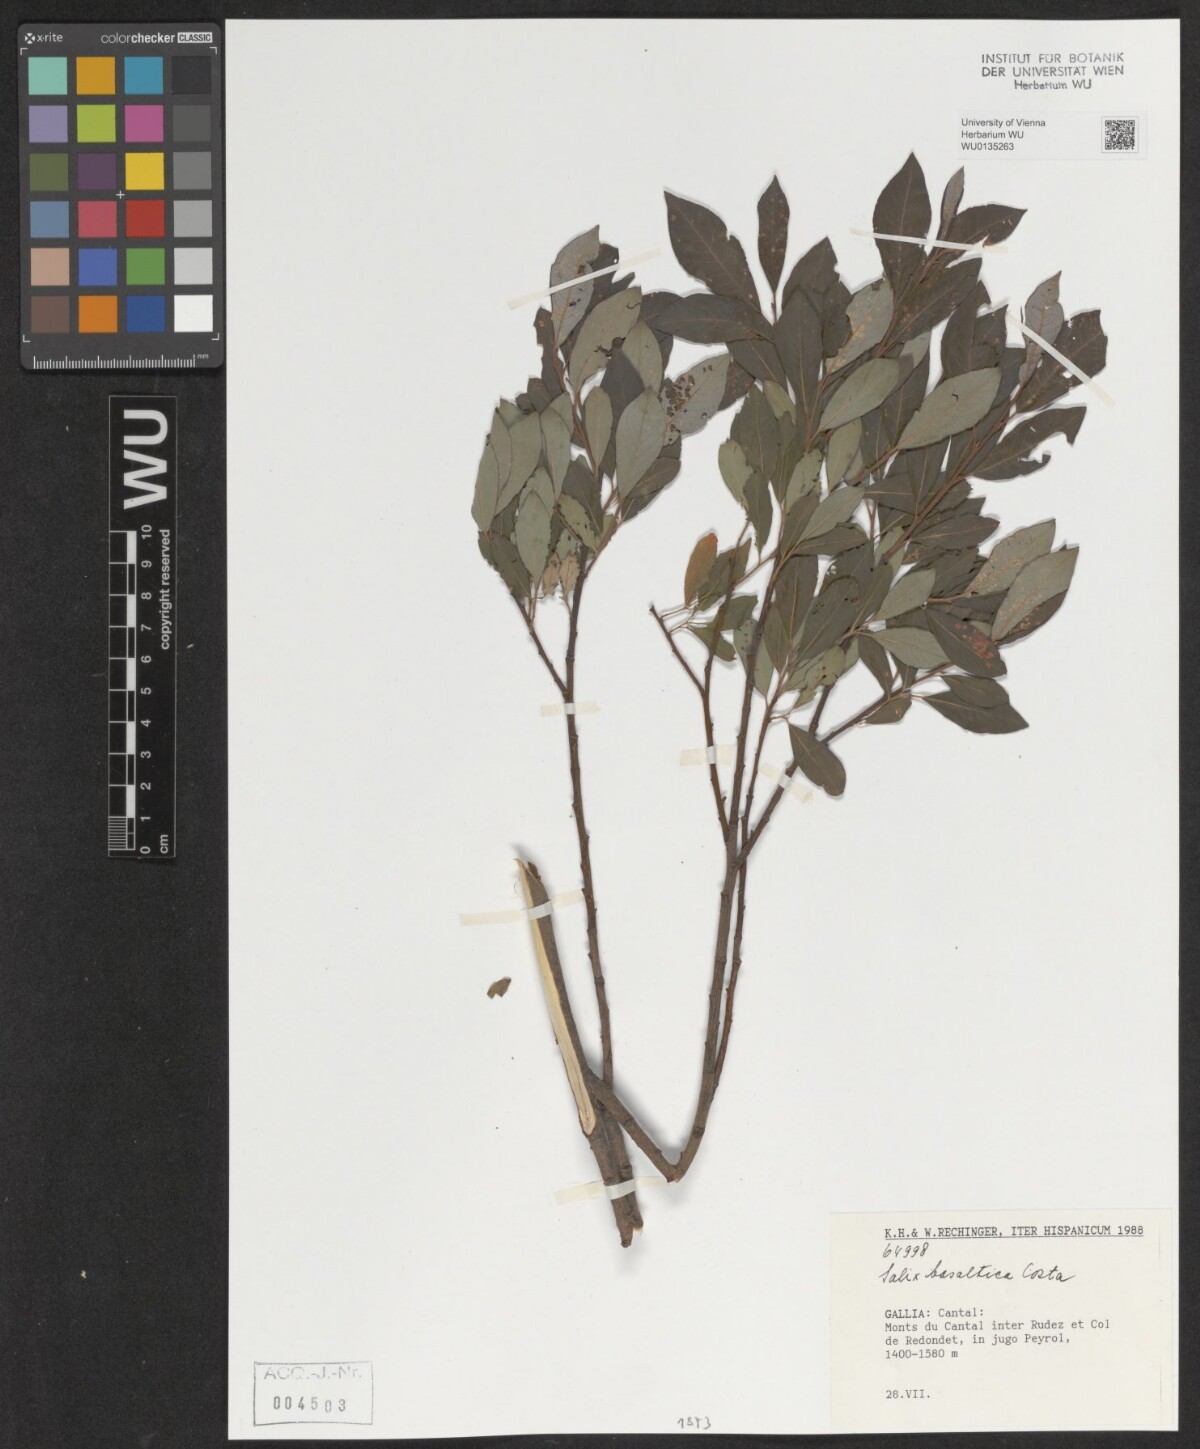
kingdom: Plantae
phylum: Tracheophyta
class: Magnoliopsida
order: Malpighiales
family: Salicaceae
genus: Salix
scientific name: Salix basaltica
